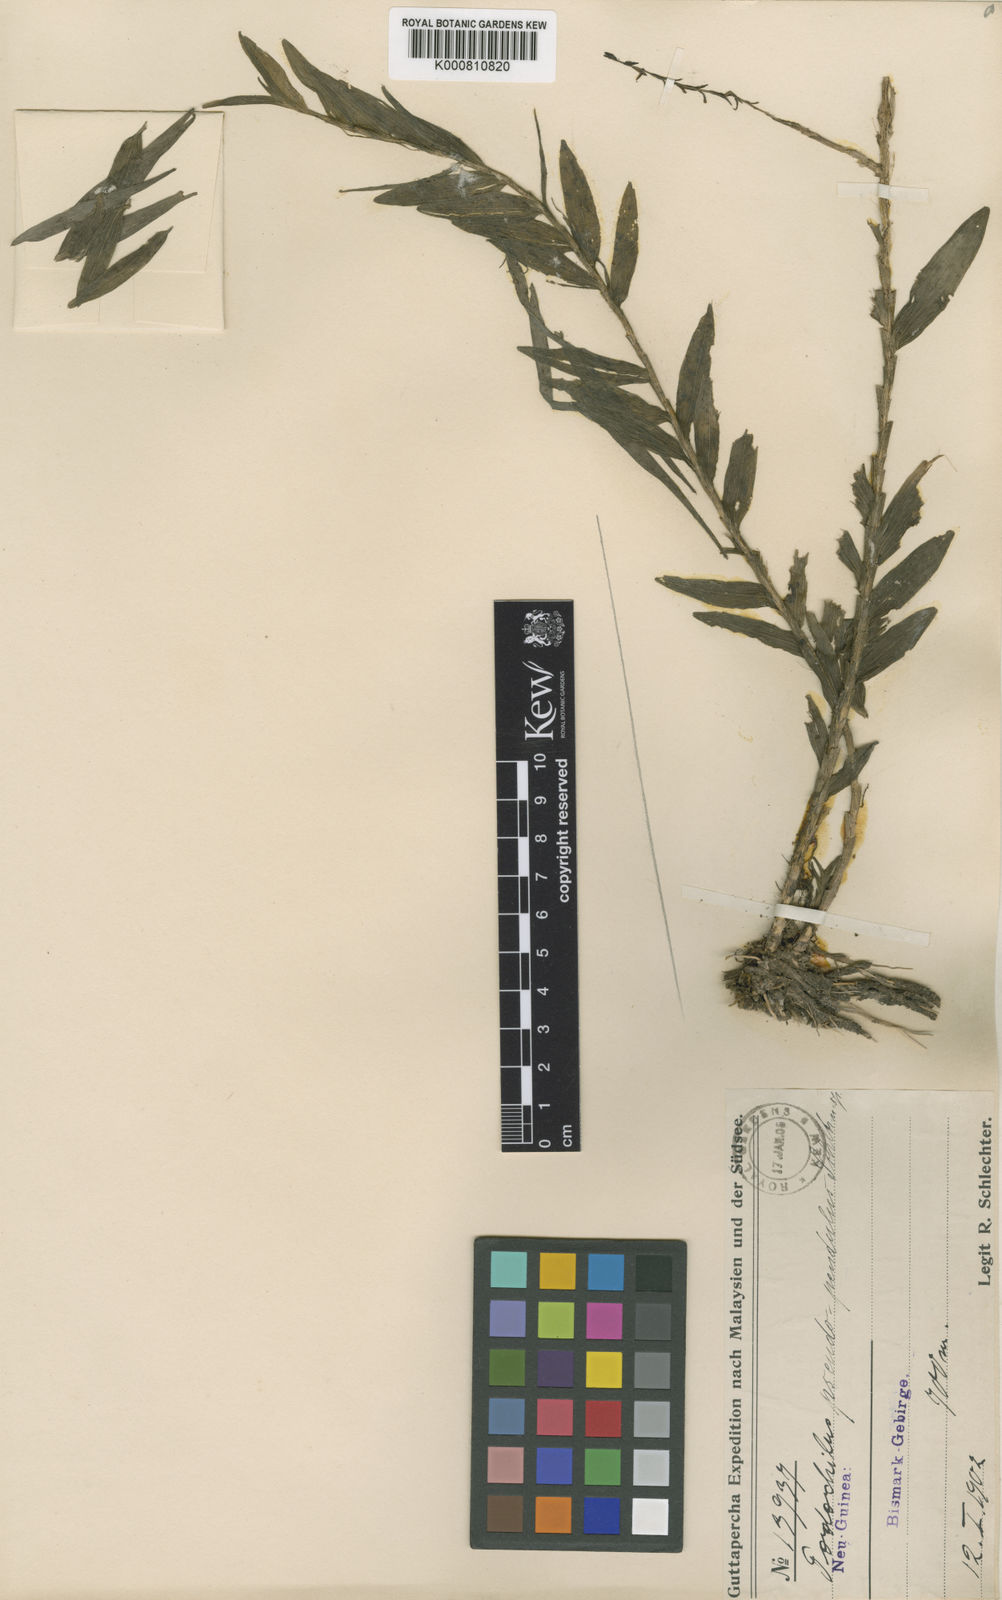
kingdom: Plantae
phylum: Tracheophyta
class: Liliopsida
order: Asparagales
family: Orchidaceae
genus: Appendicula
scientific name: Appendicula pendula
